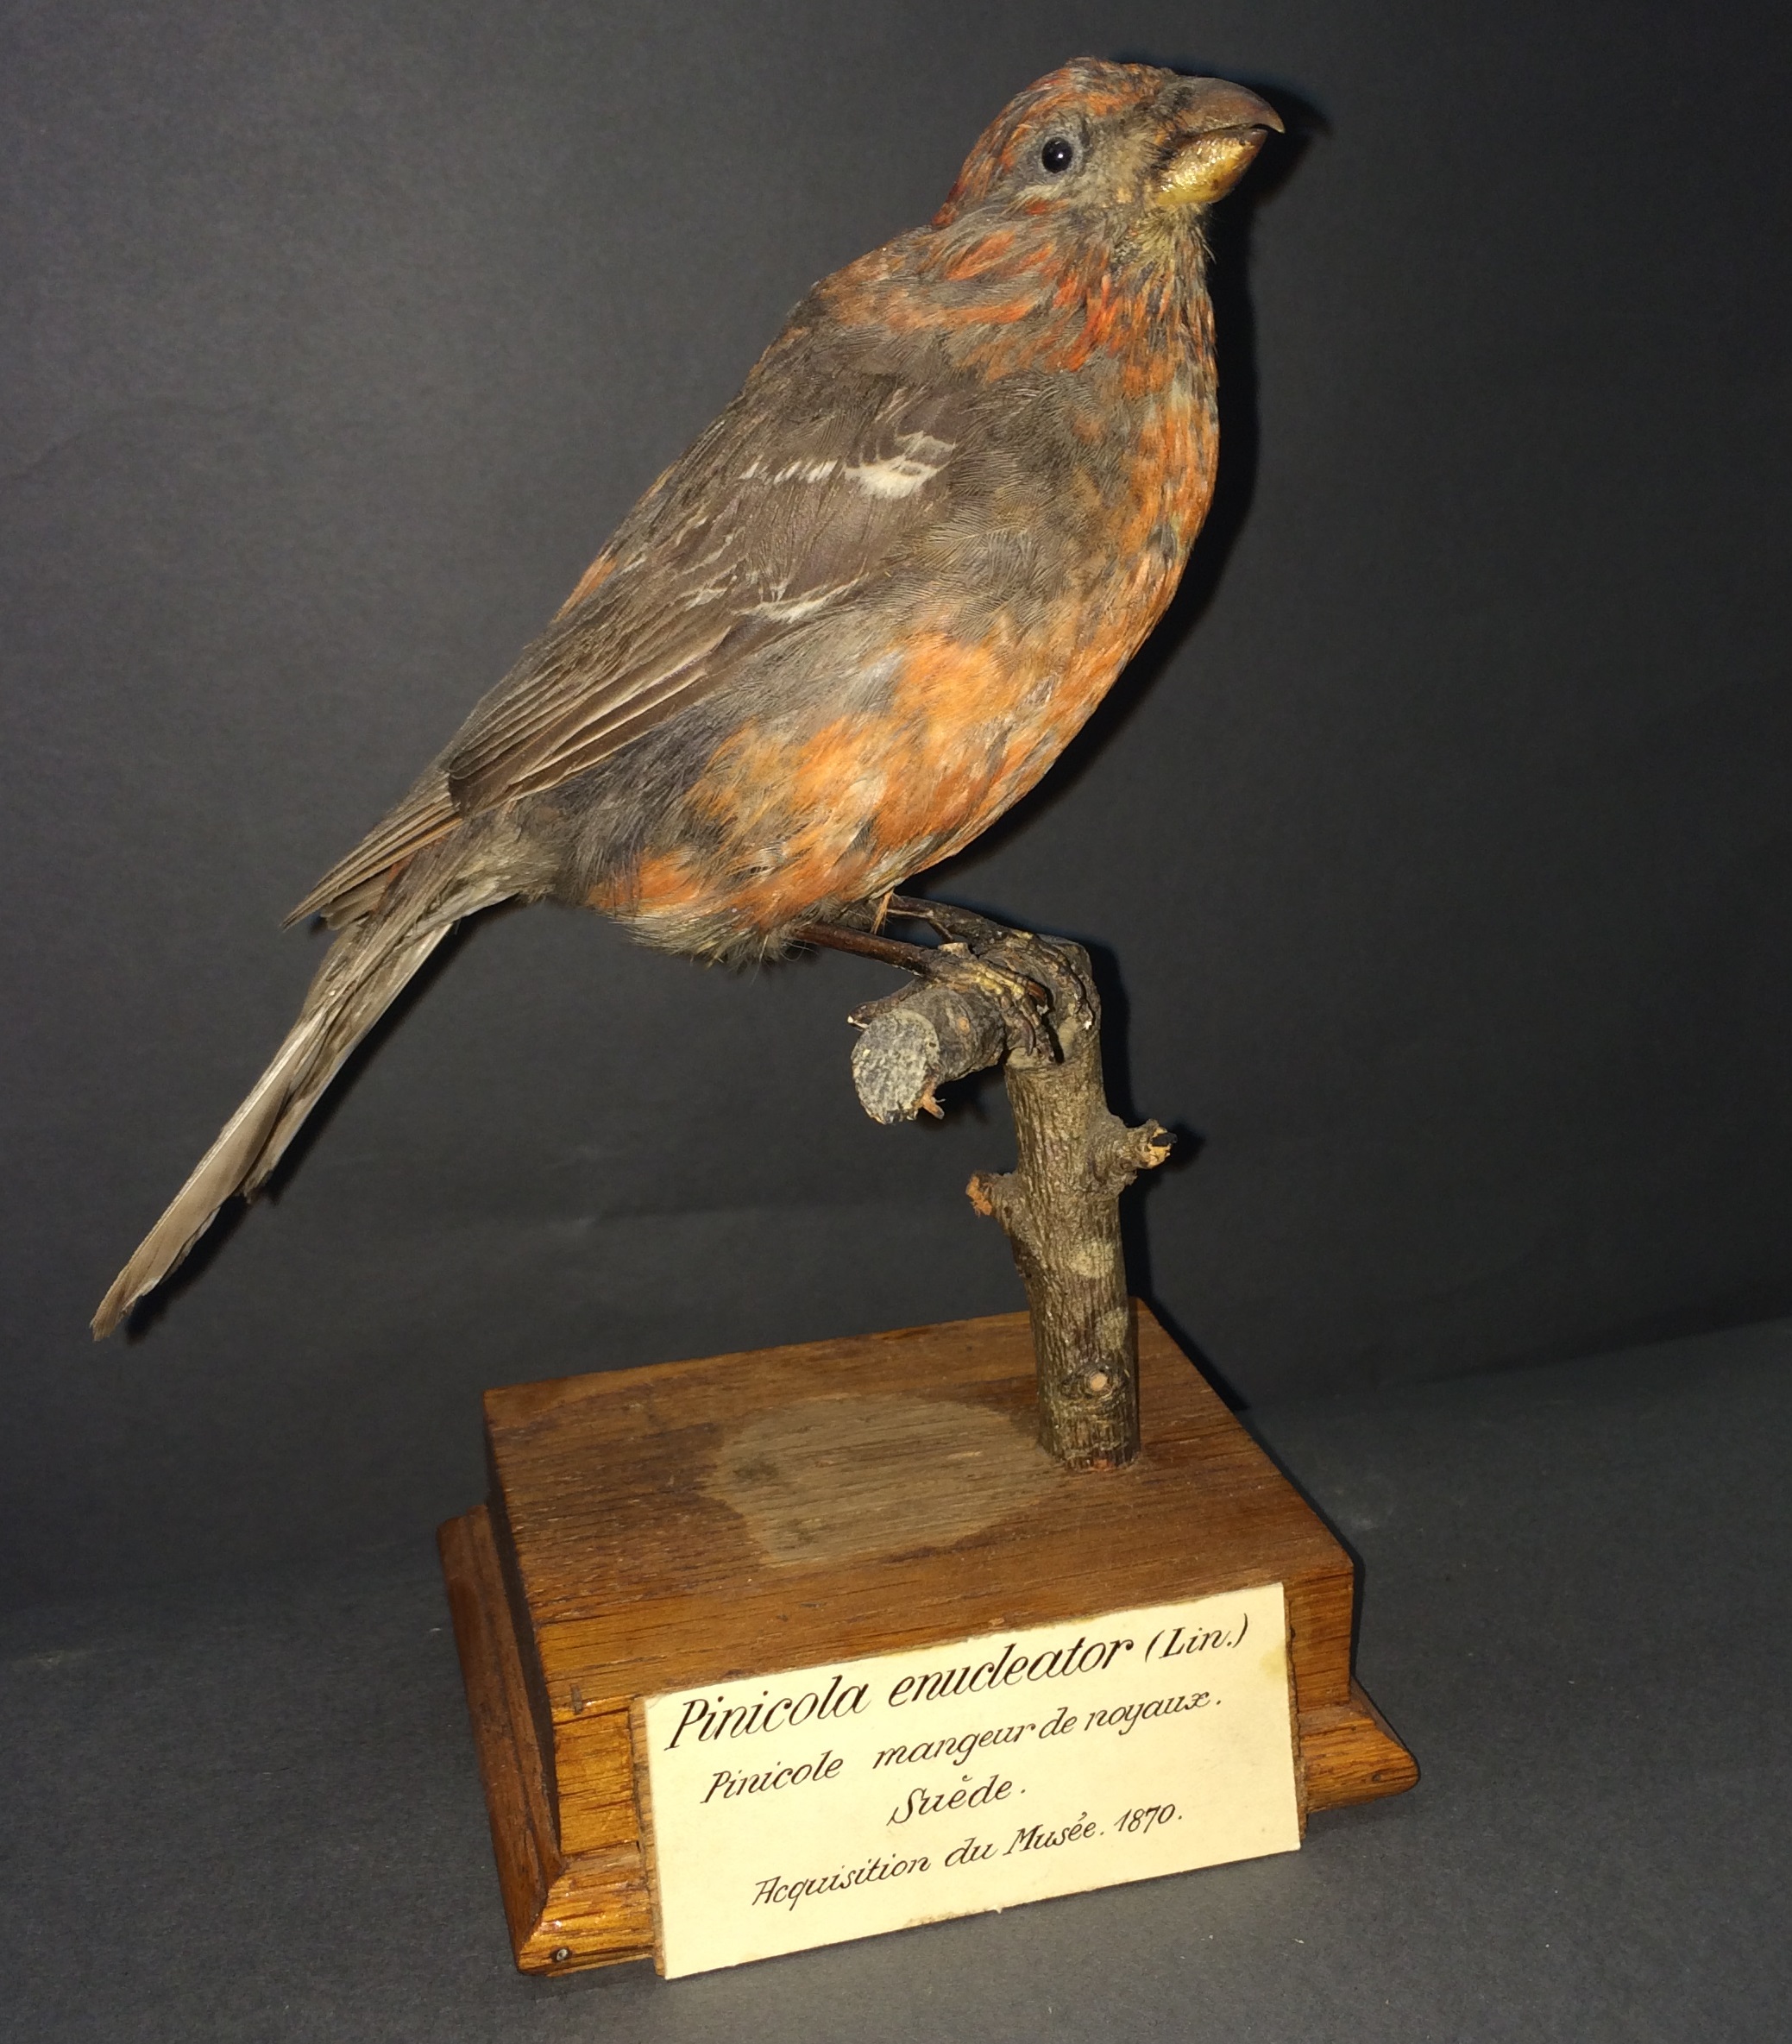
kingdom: Animalia
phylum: Chordata
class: Aves
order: Passeriformes
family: Fringillidae
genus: Pinicola
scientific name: Pinicola enucleator
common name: Pine grosbeak
